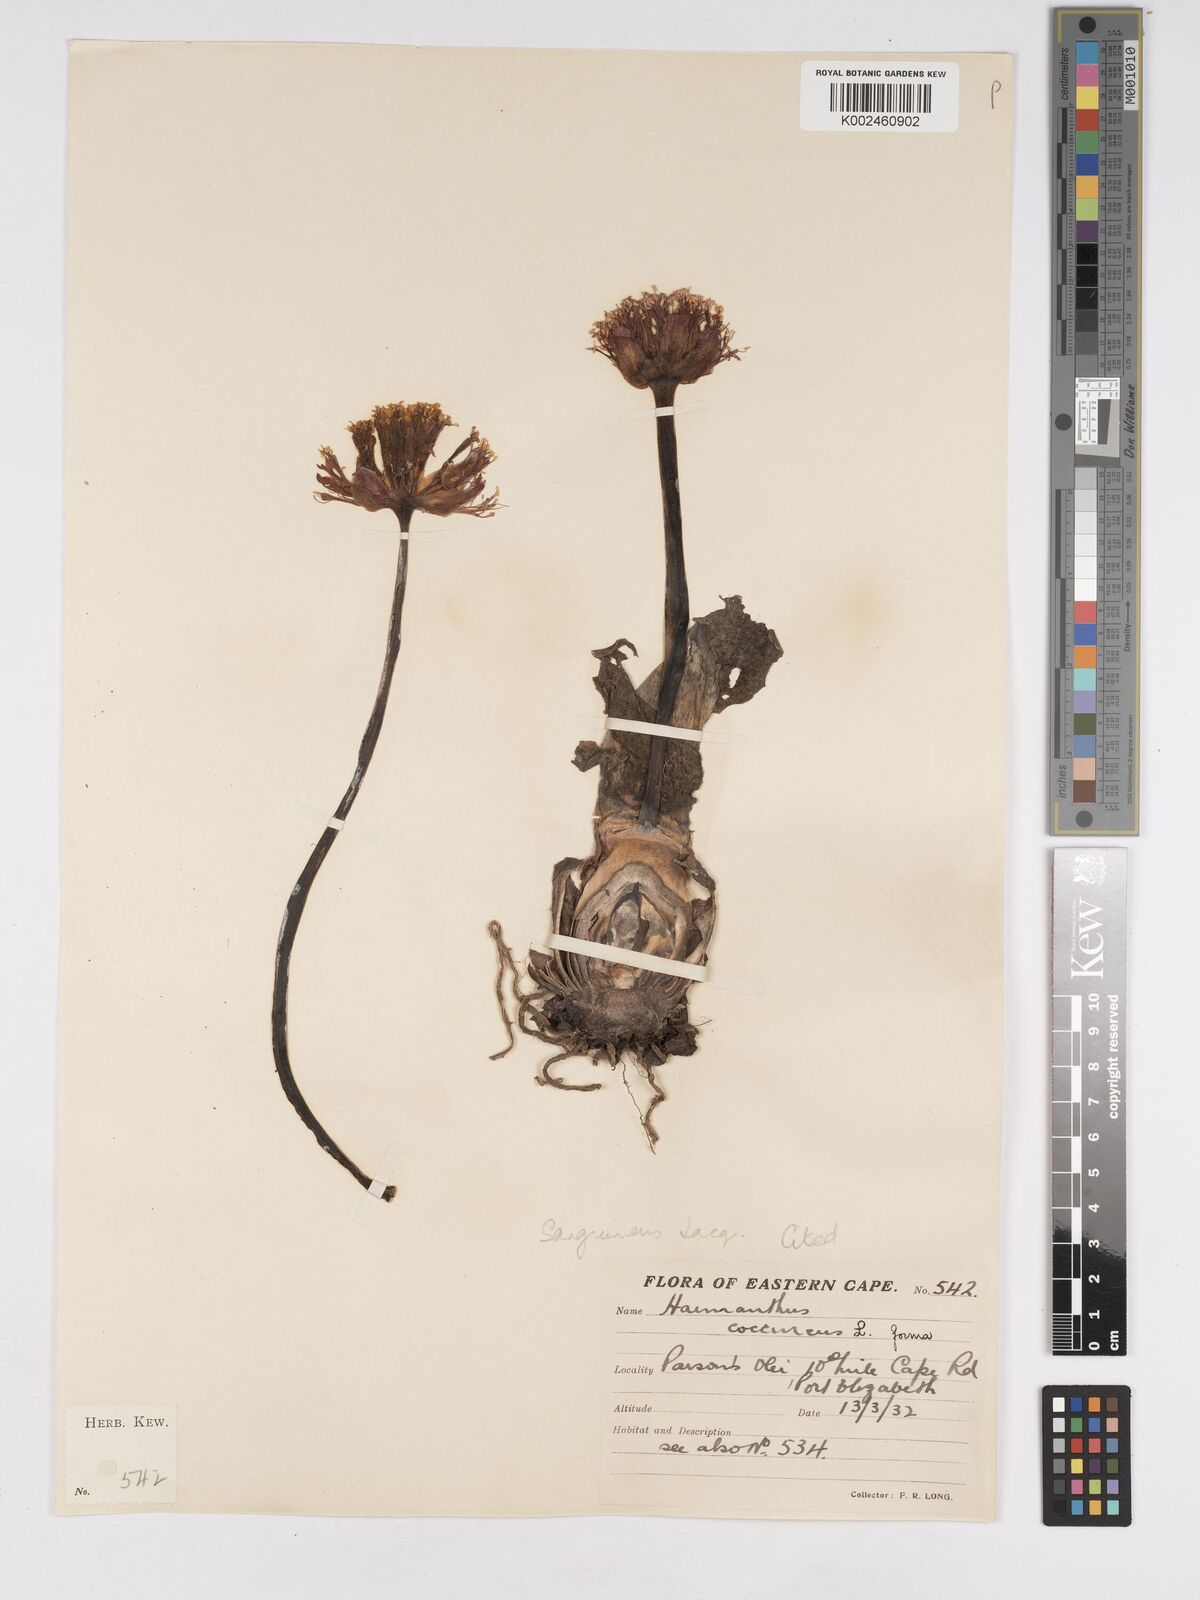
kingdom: Plantae
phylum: Tracheophyta
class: Liliopsida
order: Asparagales
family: Amaryllidaceae
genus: Haemanthus
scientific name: Haemanthus sanguineus
